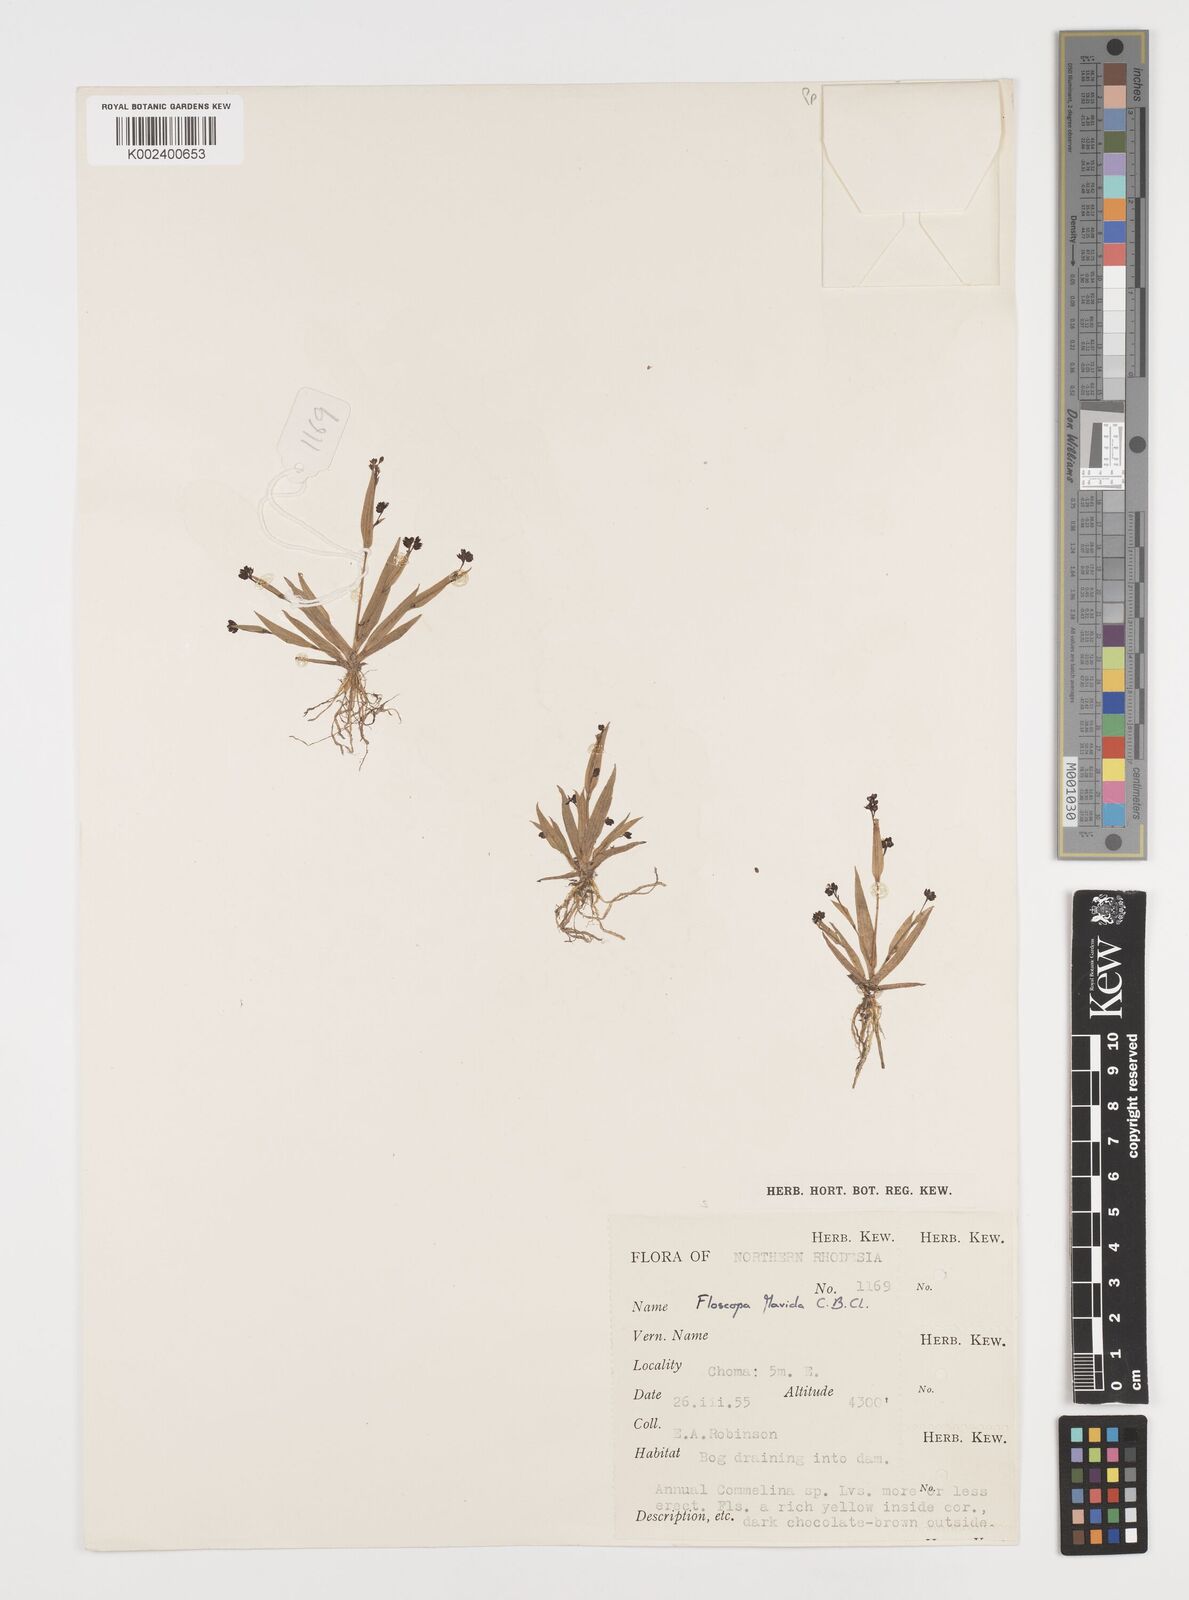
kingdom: Plantae
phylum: Tracheophyta
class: Liliopsida
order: Commelinales
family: Commelinaceae
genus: Floscopa
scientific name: Floscopa flavida
